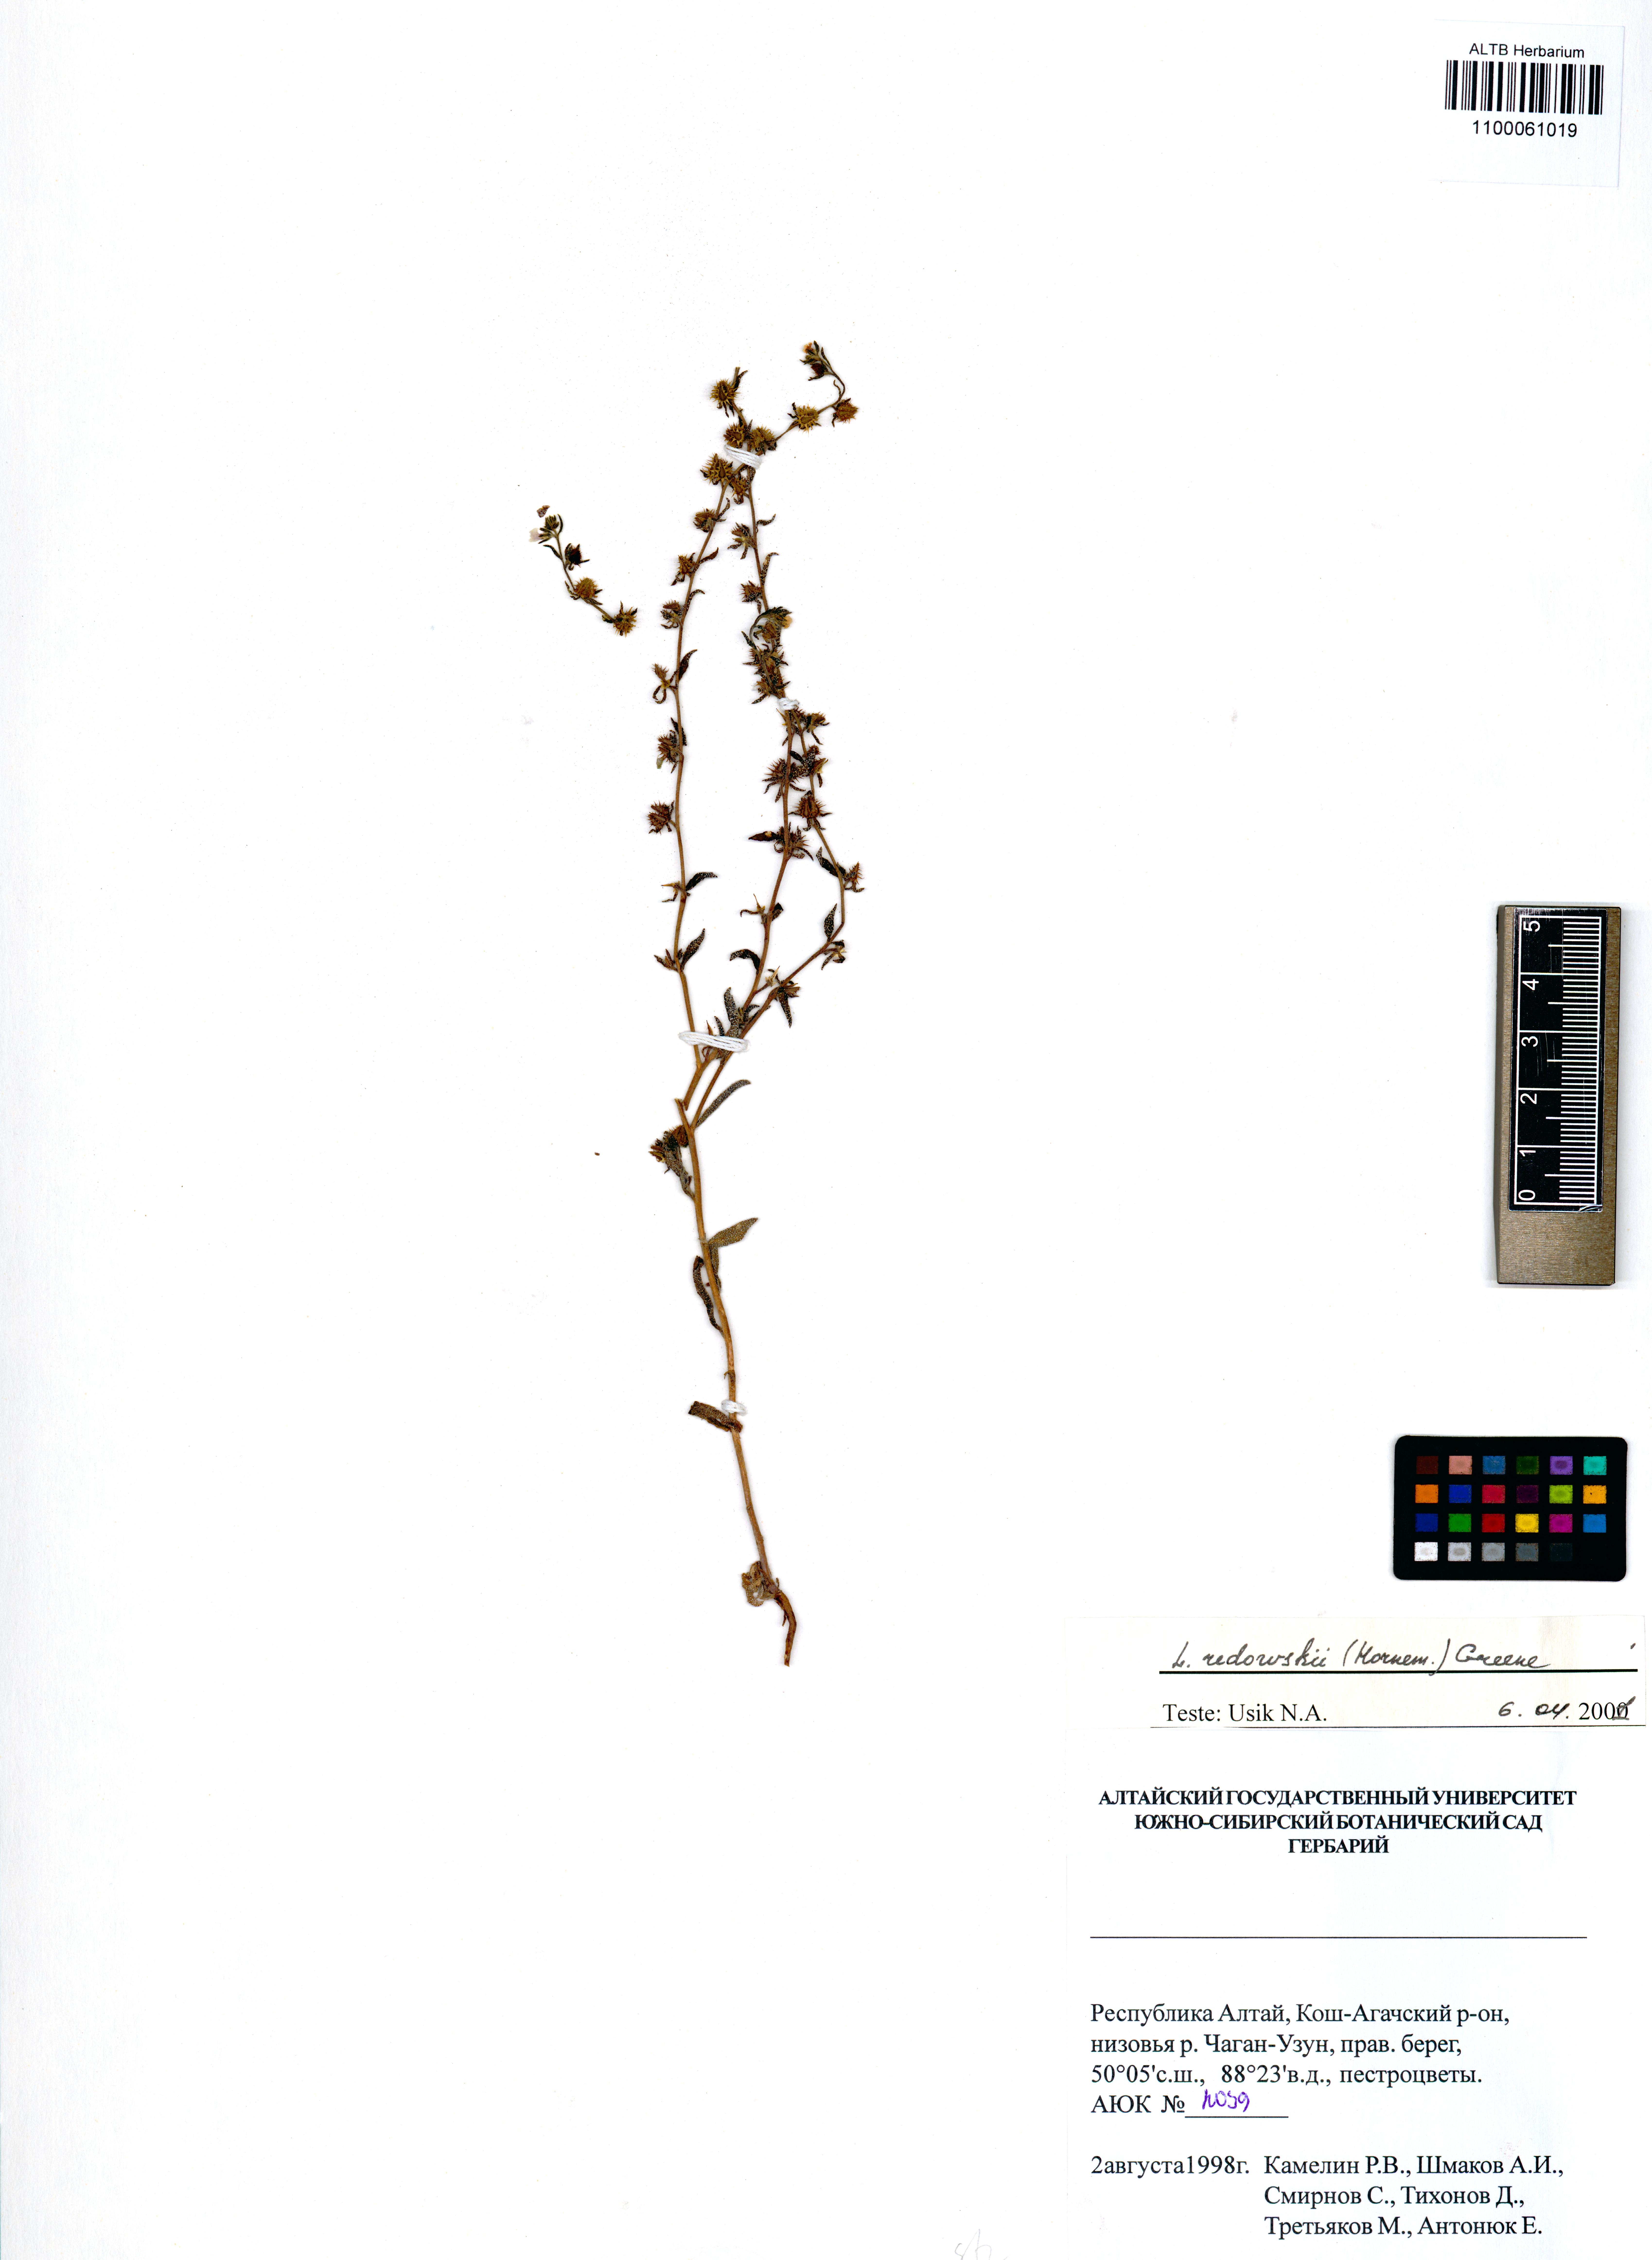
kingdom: Plantae
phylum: Tracheophyta
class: Magnoliopsida
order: Boraginales
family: Boraginaceae
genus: Lappula
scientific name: Lappula redowskii
